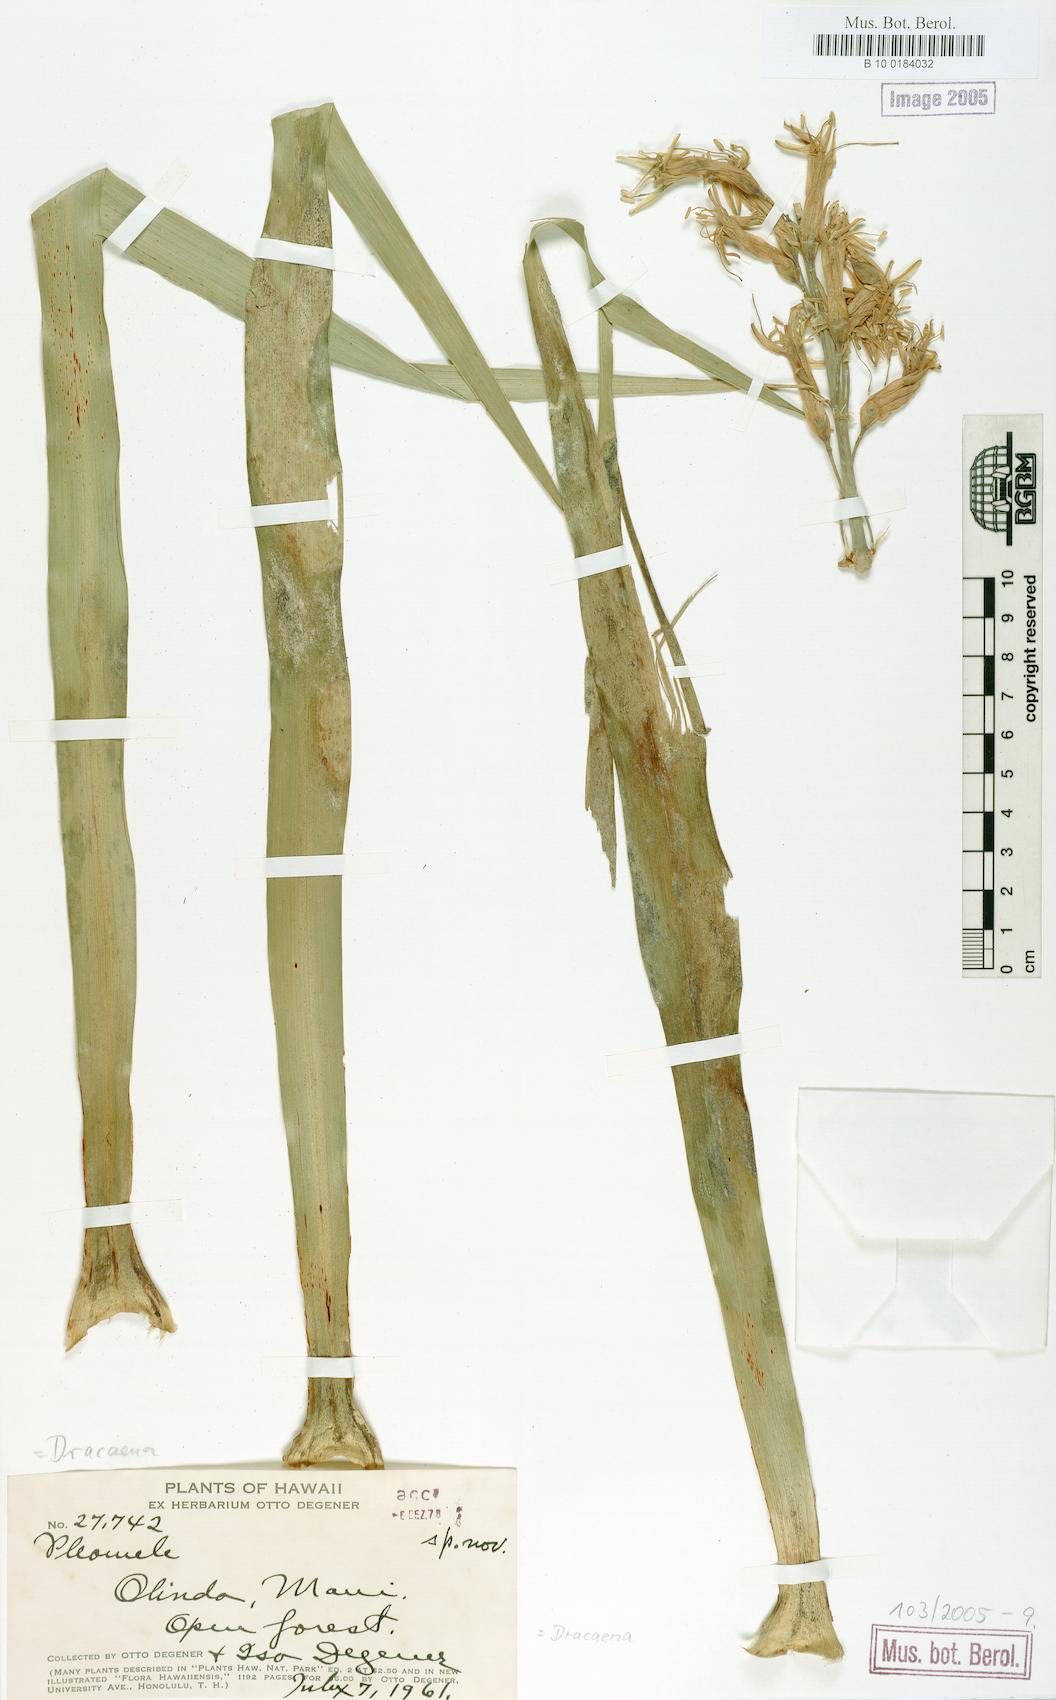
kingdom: Plantae
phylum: Tracheophyta
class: Liliopsida
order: Asparagales
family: Asparagaceae
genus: Dracaena
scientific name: Dracaena
